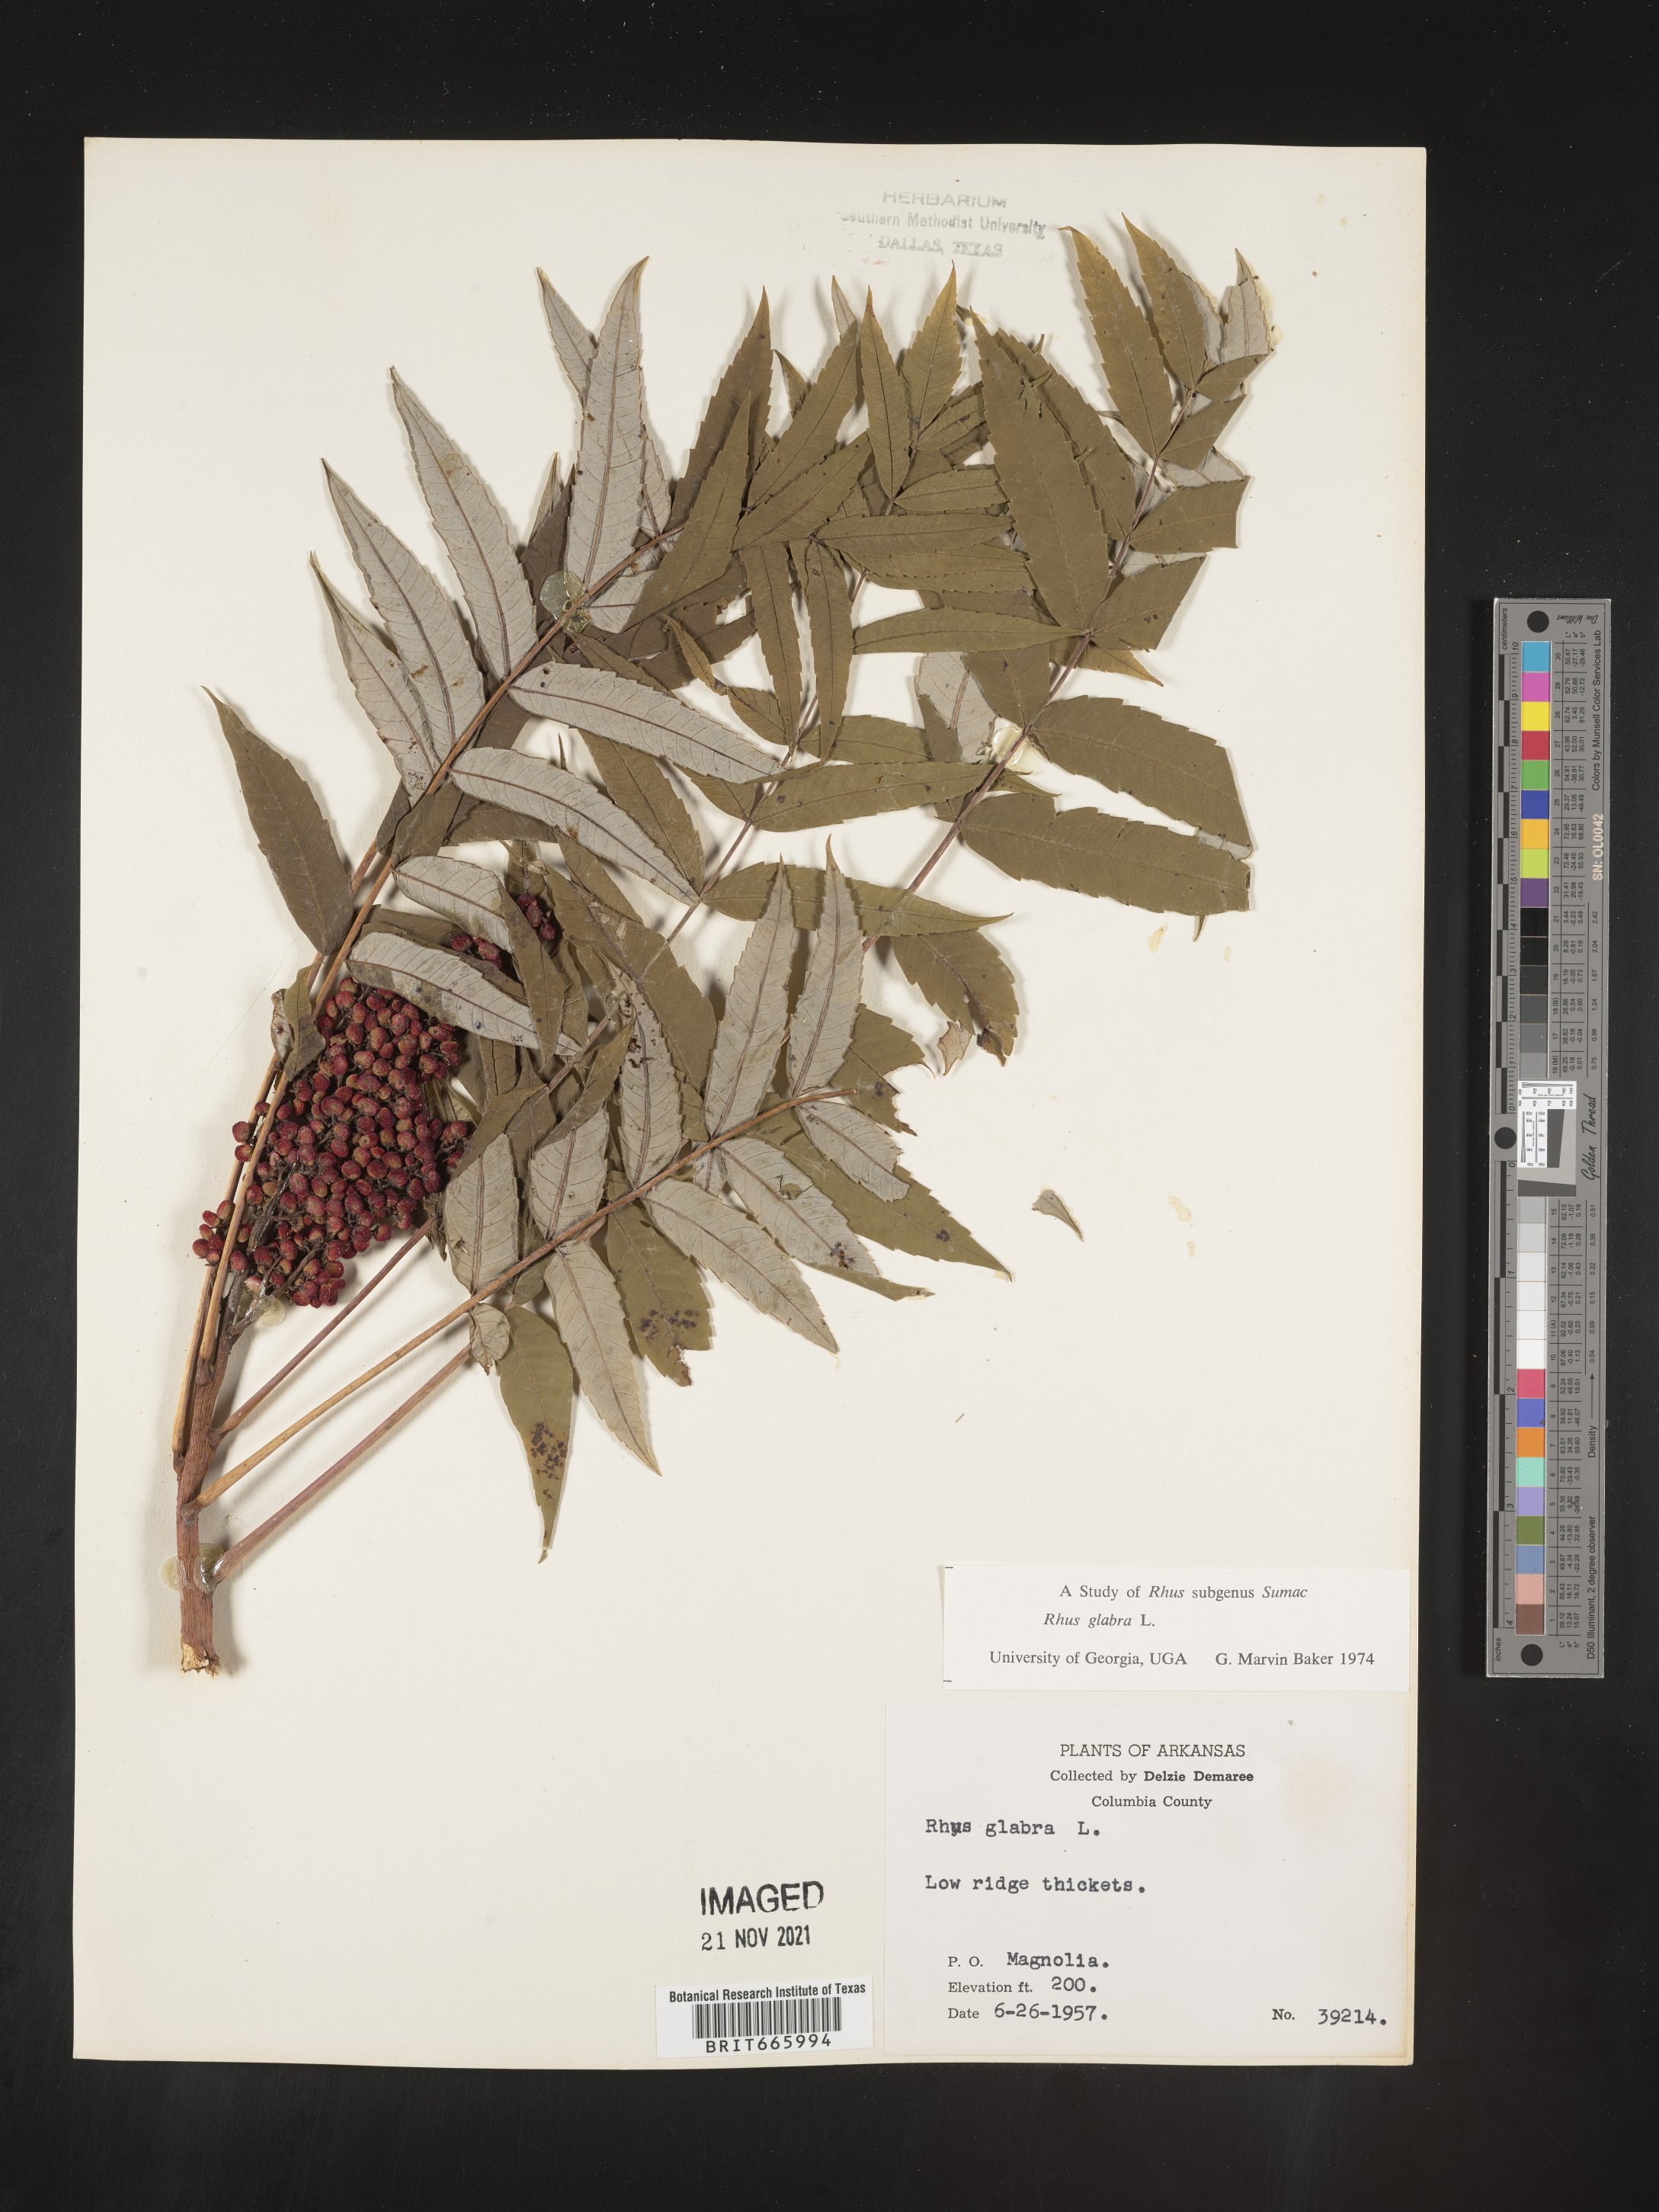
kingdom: Plantae
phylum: Tracheophyta
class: Magnoliopsida
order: Sapindales
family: Anacardiaceae
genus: Rhus
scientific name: Rhus glabra
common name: Scarlet sumac
